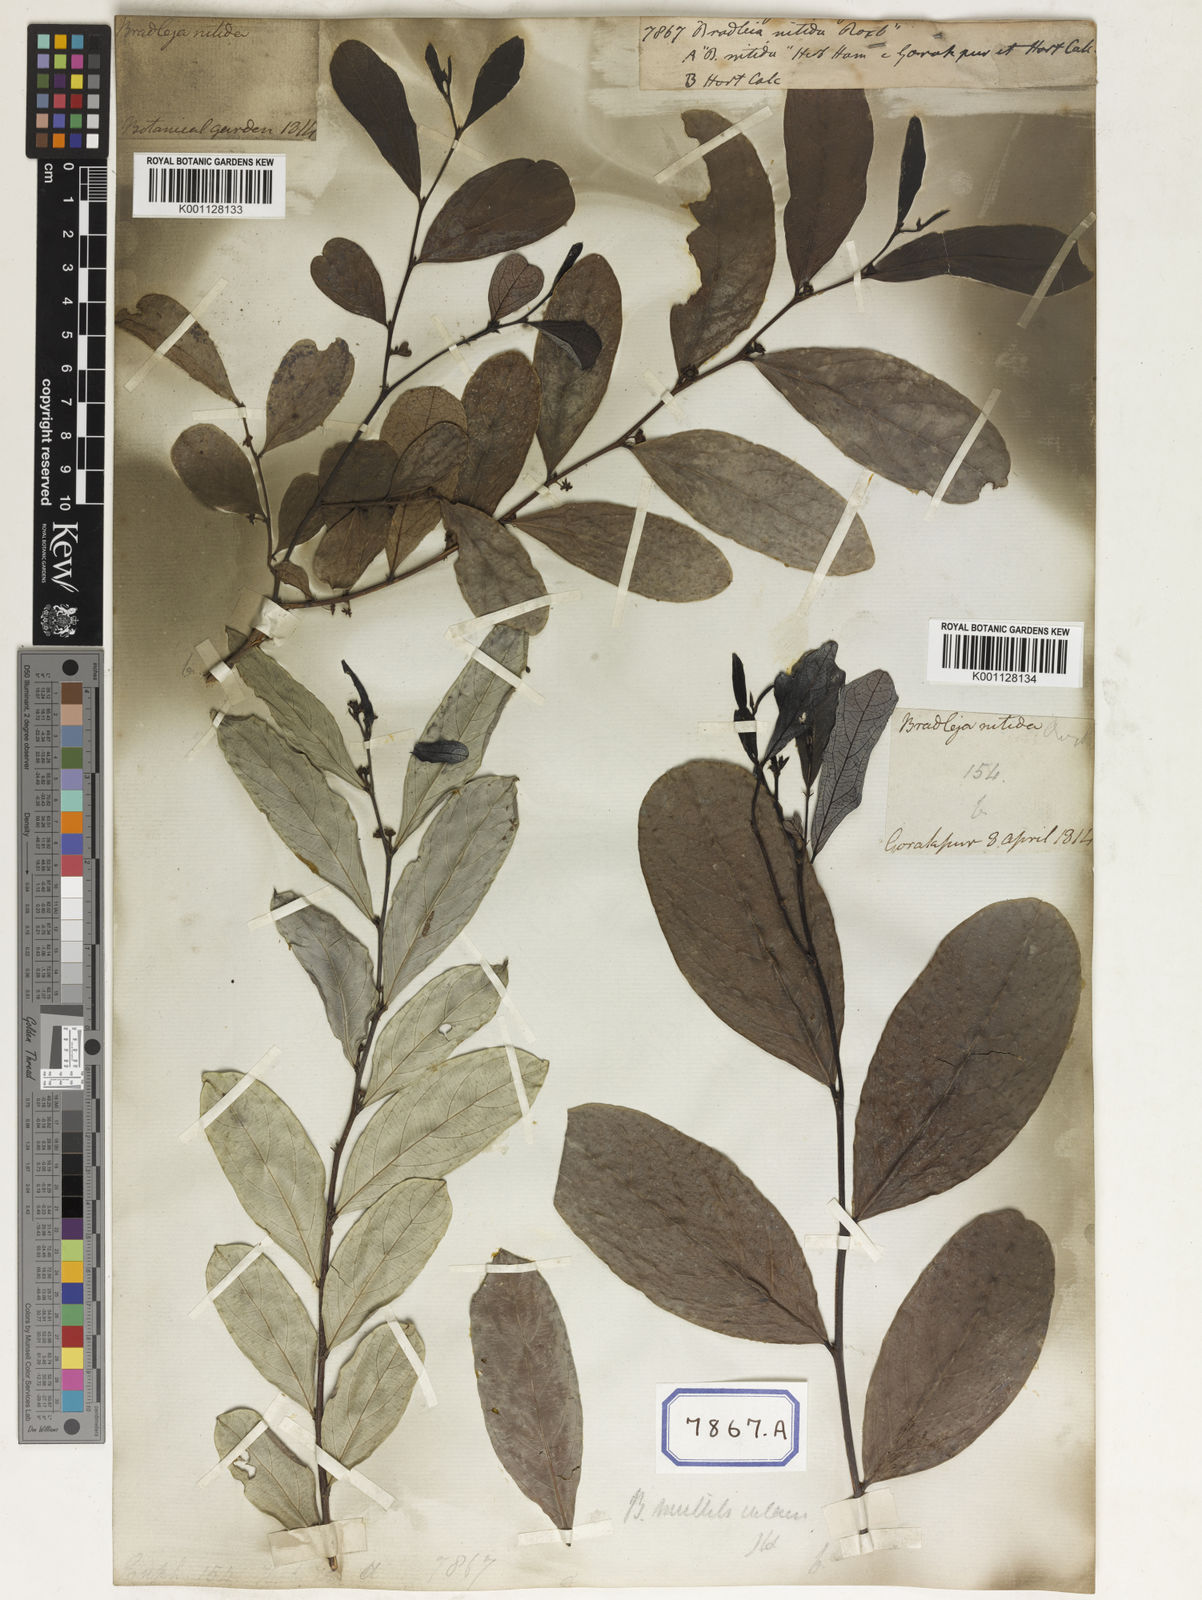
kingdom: Plantae
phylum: Tracheophyta
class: Magnoliopsida
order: Malpighiales
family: Euphorbiaceae
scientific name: Euphorbiaceae
